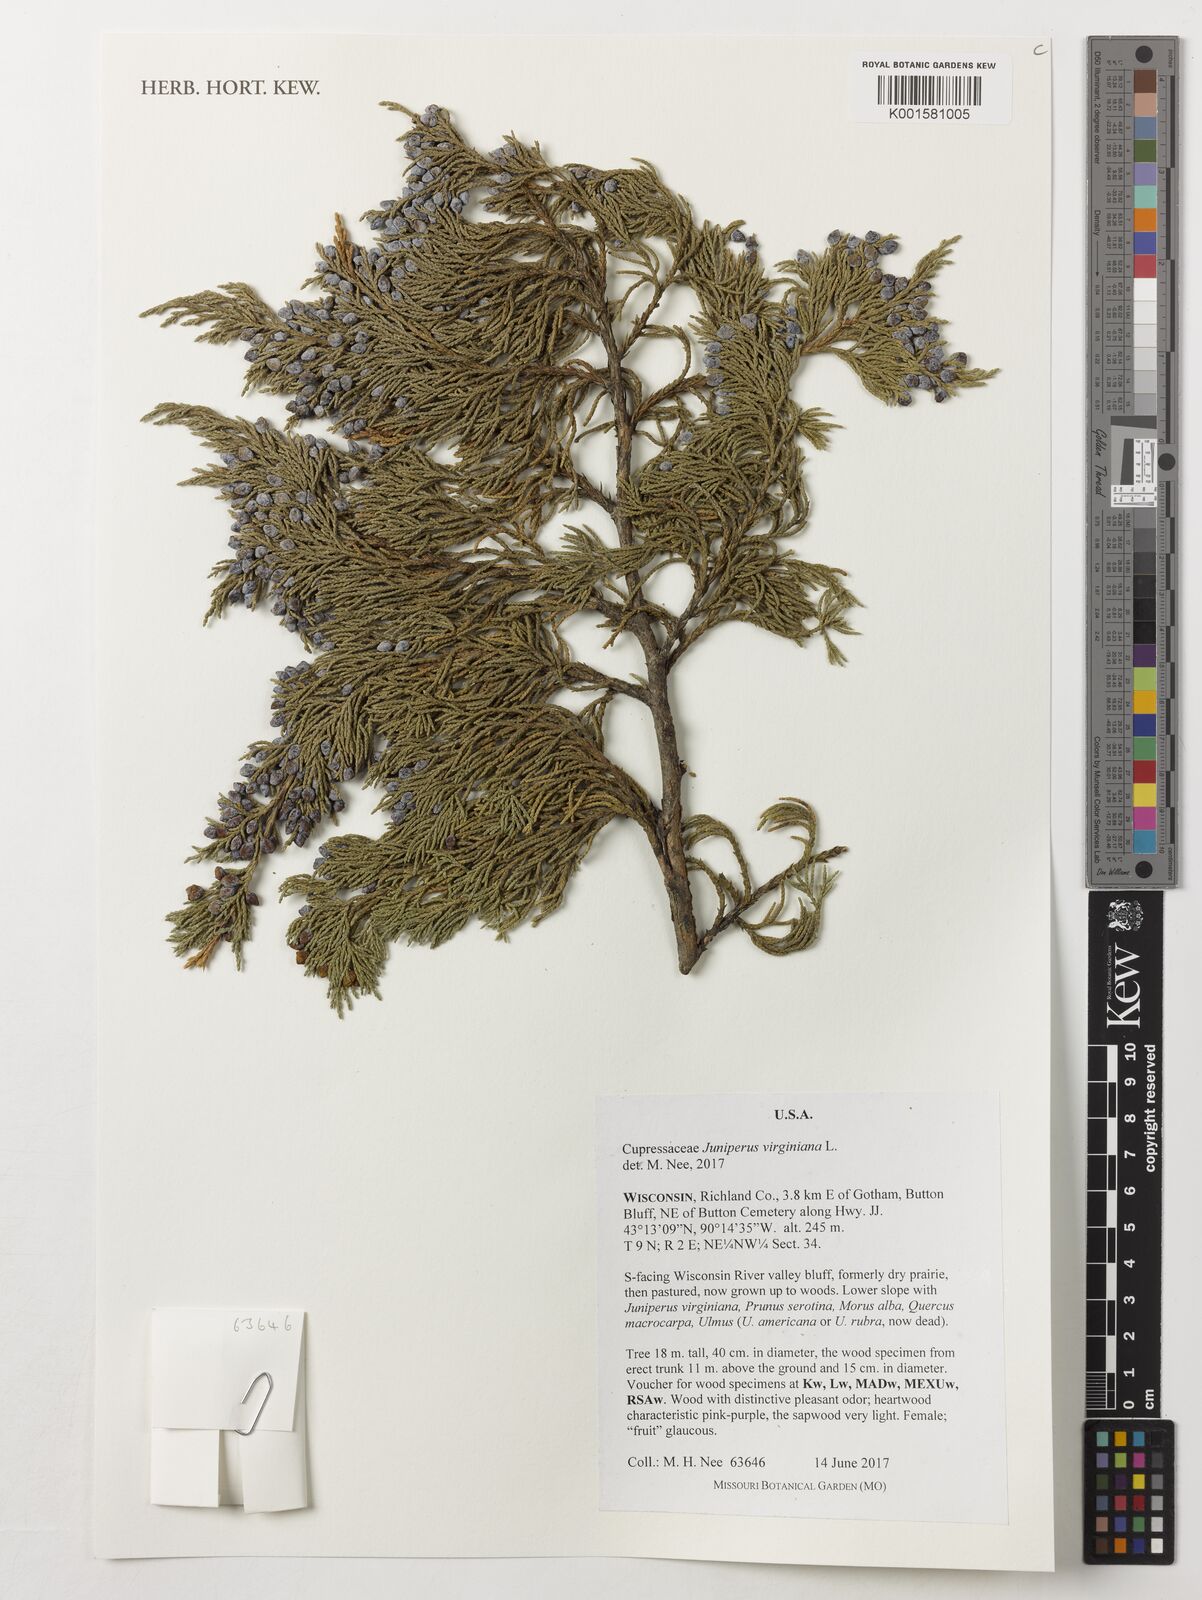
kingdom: Plantae
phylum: Tracheophyta
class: Pinopsida
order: Pinales
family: Cupressaceae
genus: Juniperus
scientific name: Juniperus virginiana
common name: Red juniper
